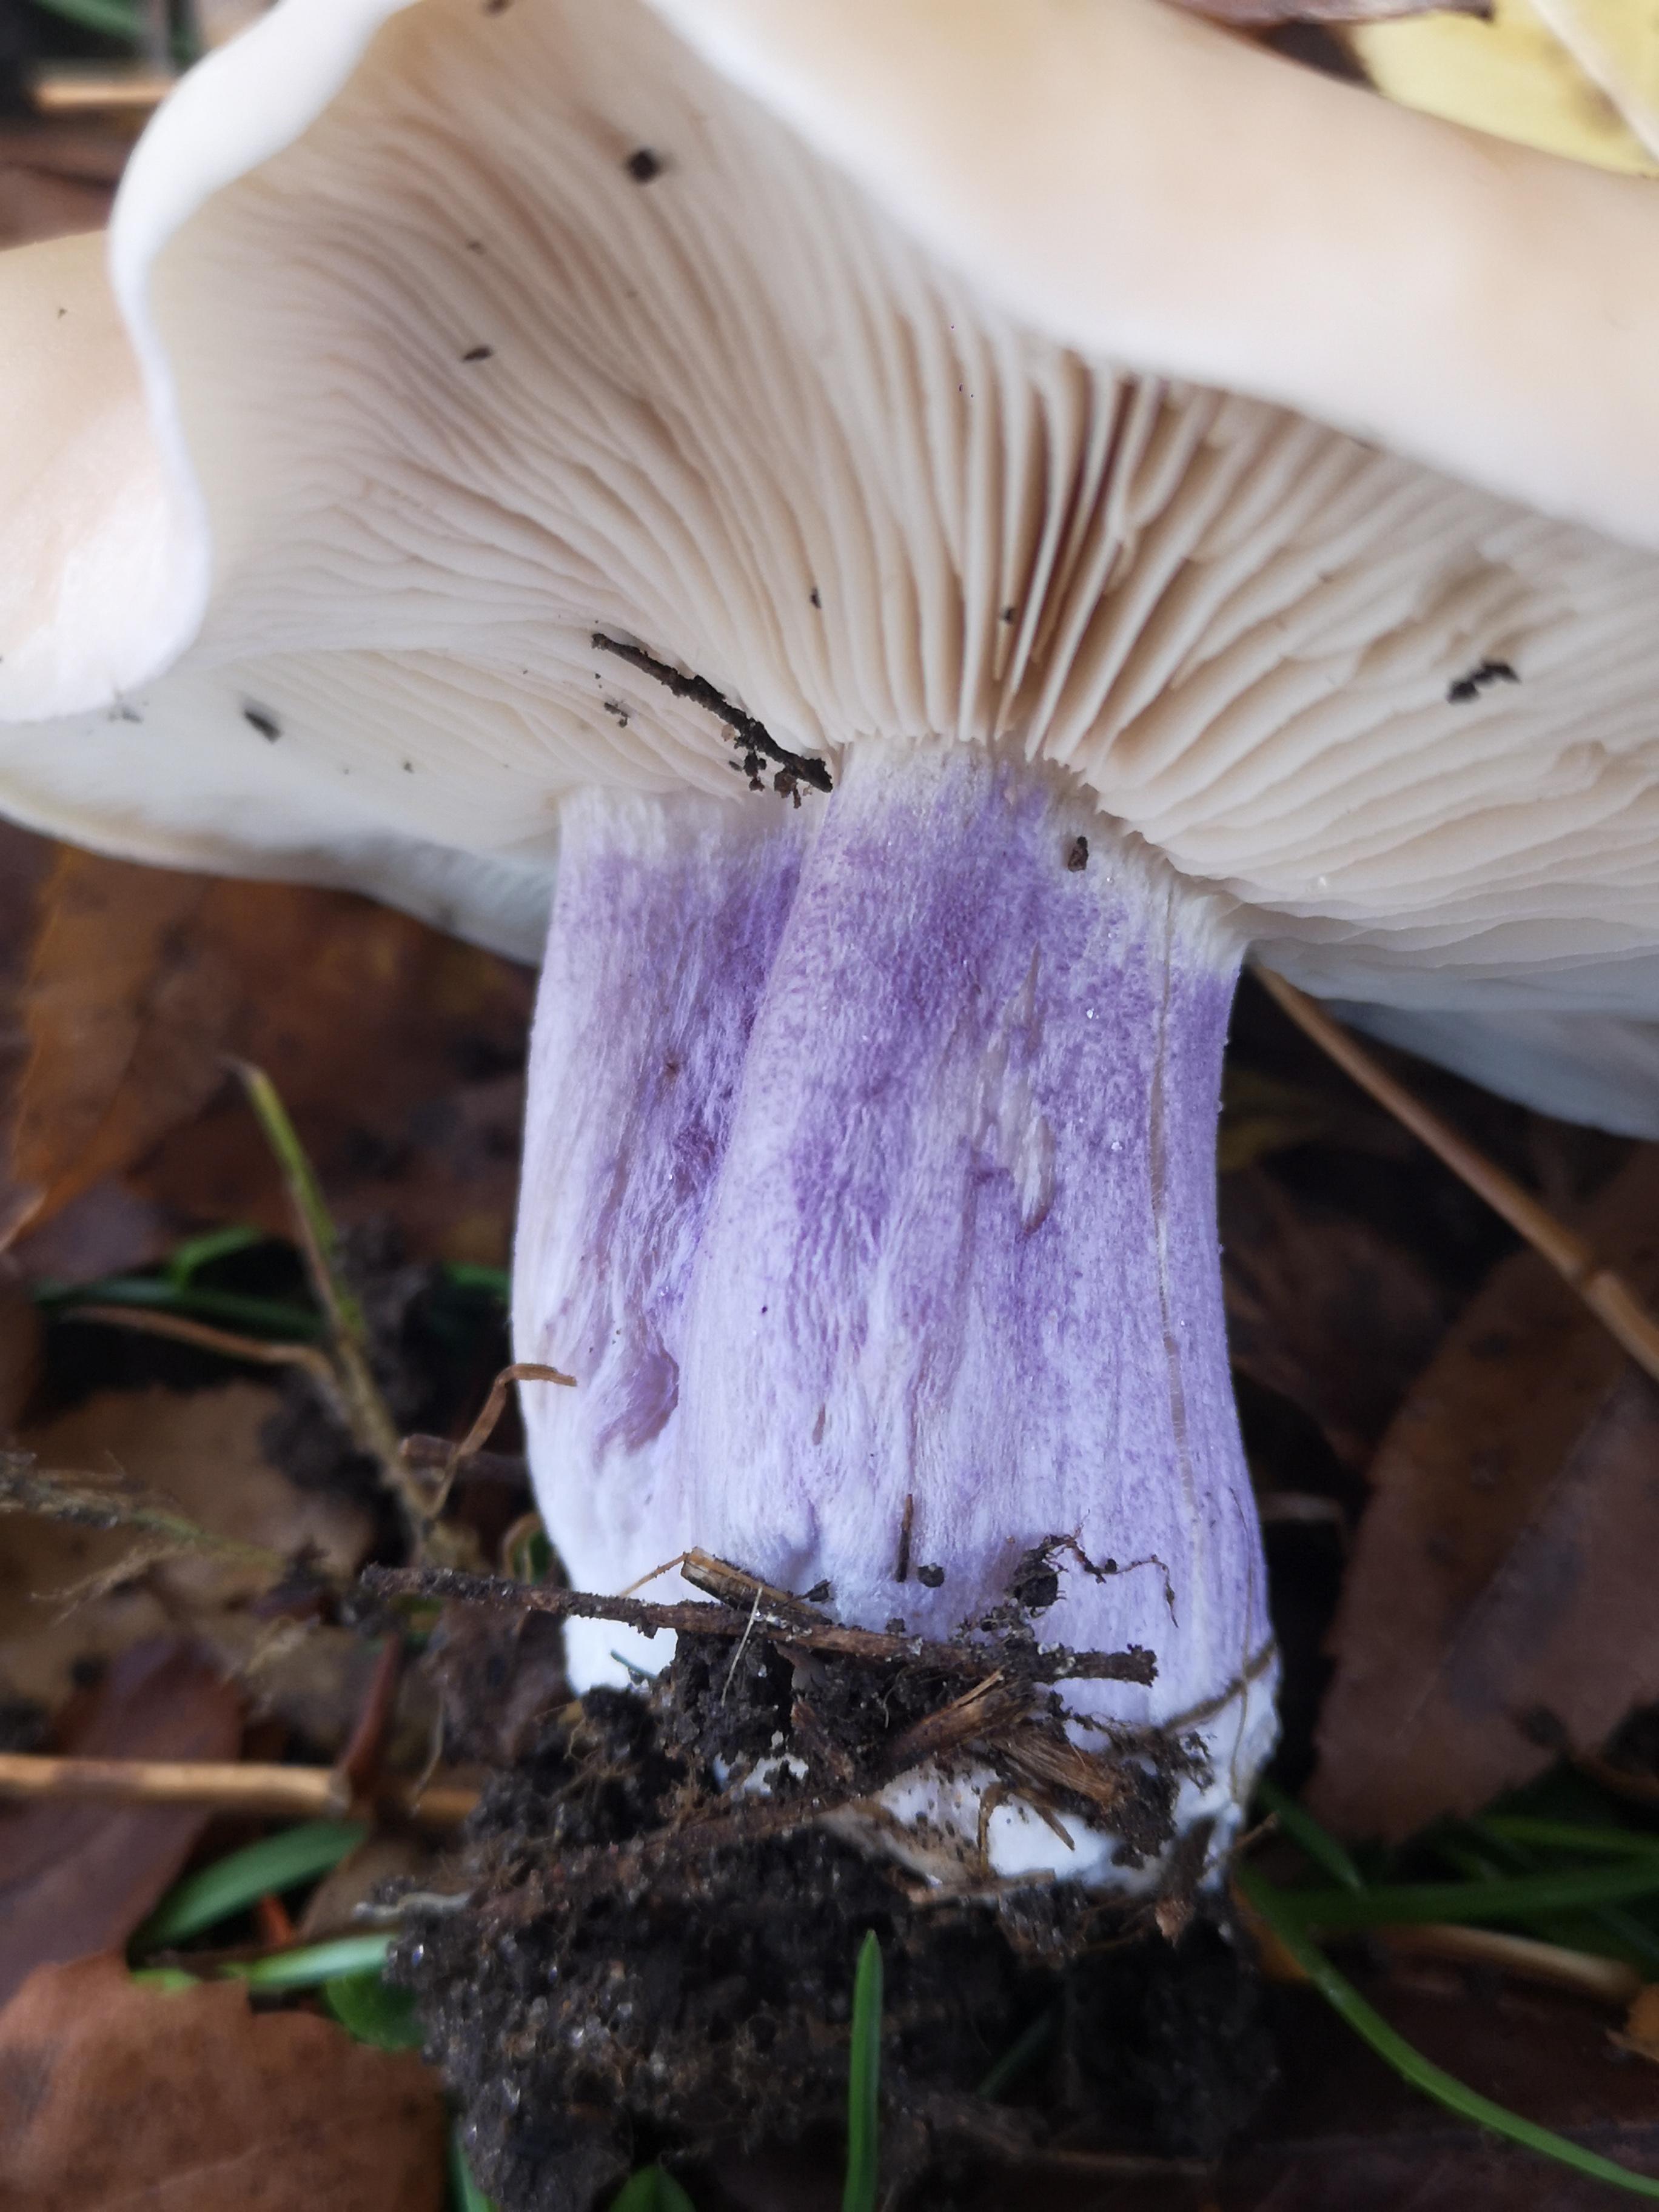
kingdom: Fungi
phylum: Basidiomycota
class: Agaricomycetes
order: Agaricales
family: Tricholomataceae
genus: Lepista
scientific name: Lepista personata
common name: bleg hekseringshat
